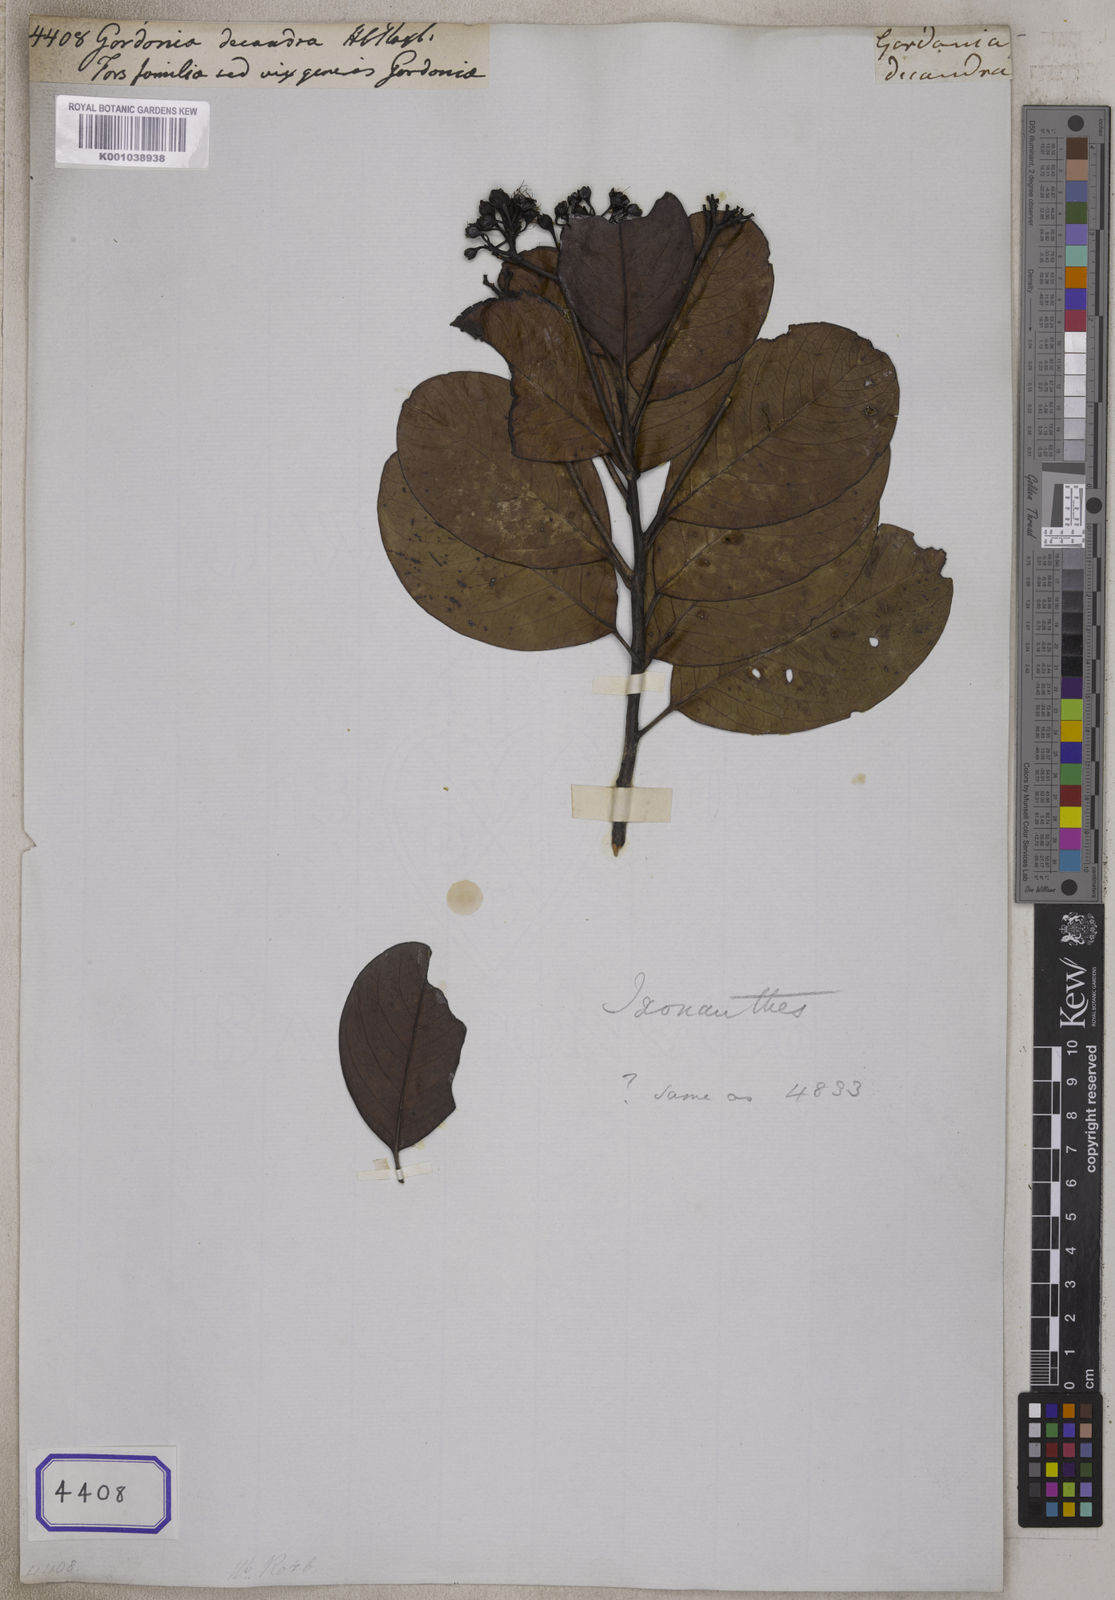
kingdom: Plantae
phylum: Tracheophyta
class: Magnoliopsida
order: Malpighiales
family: Ixonanthaceae
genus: Ixonanthes
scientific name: Ixonanthes reticulata
